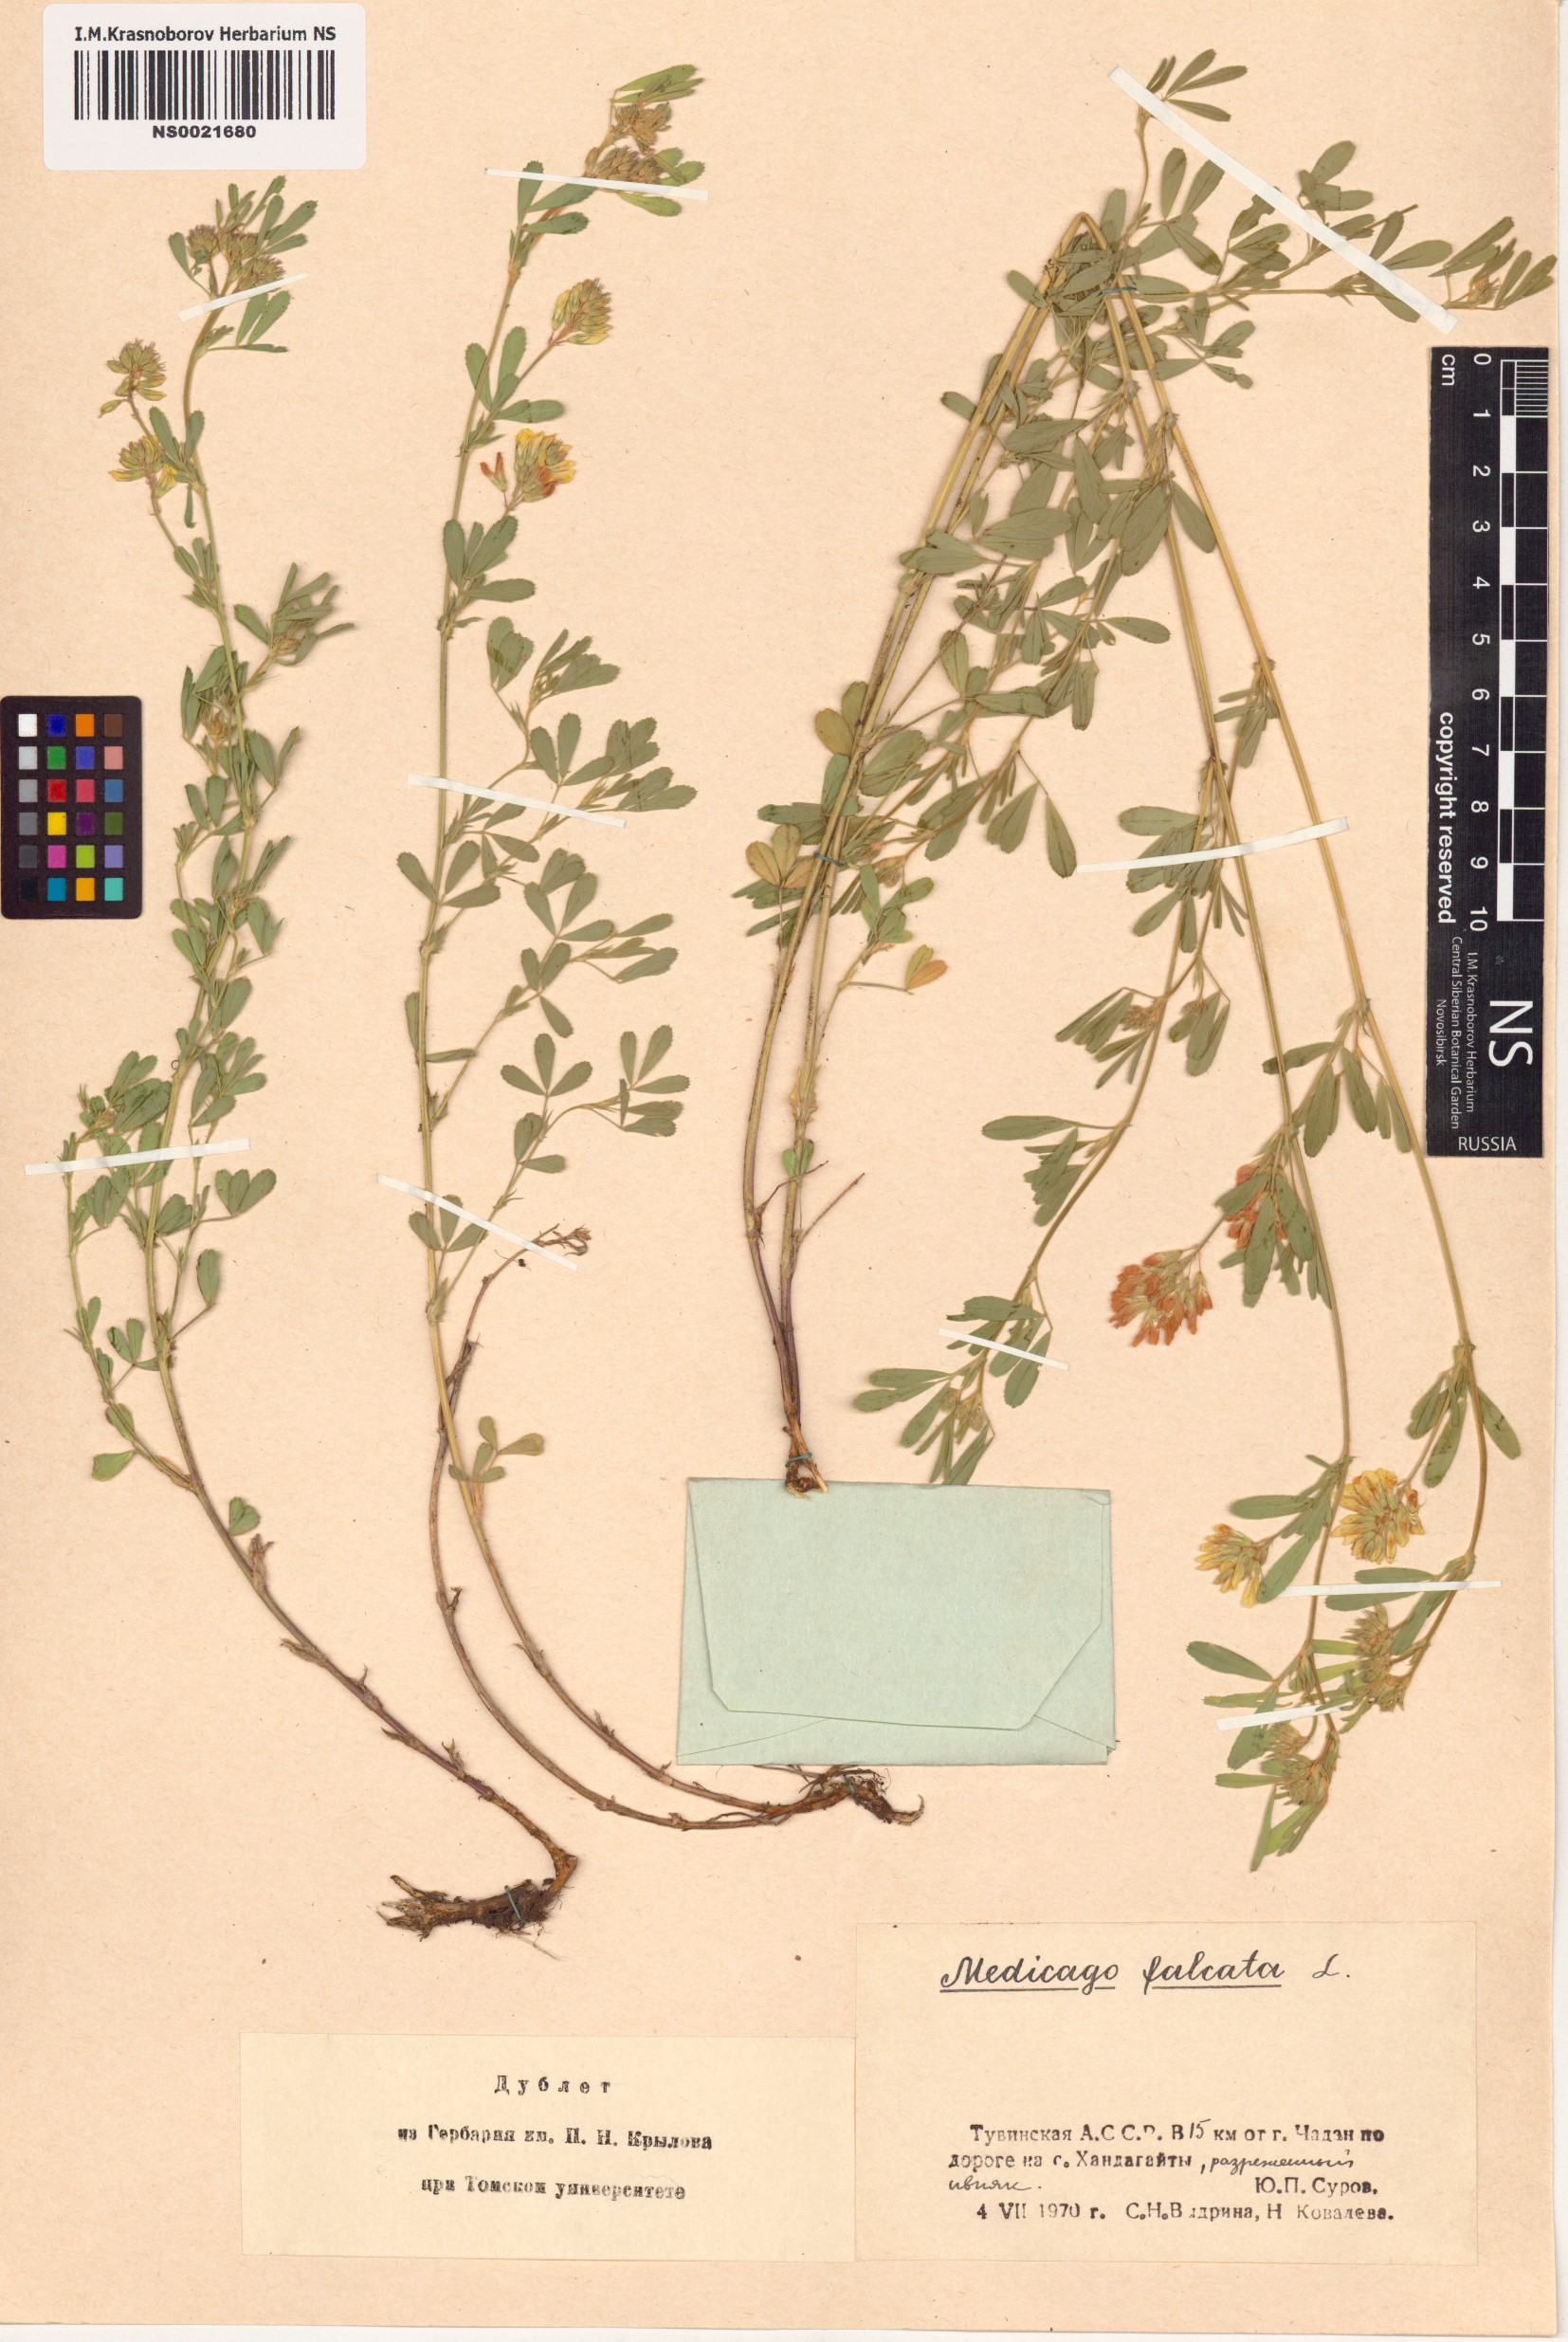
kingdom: Plantae
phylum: Tracheophyta
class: Magnoliopsida
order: Fabales
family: Fabaceae
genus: Medicago
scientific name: Medicago falcata
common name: Sickle medick
